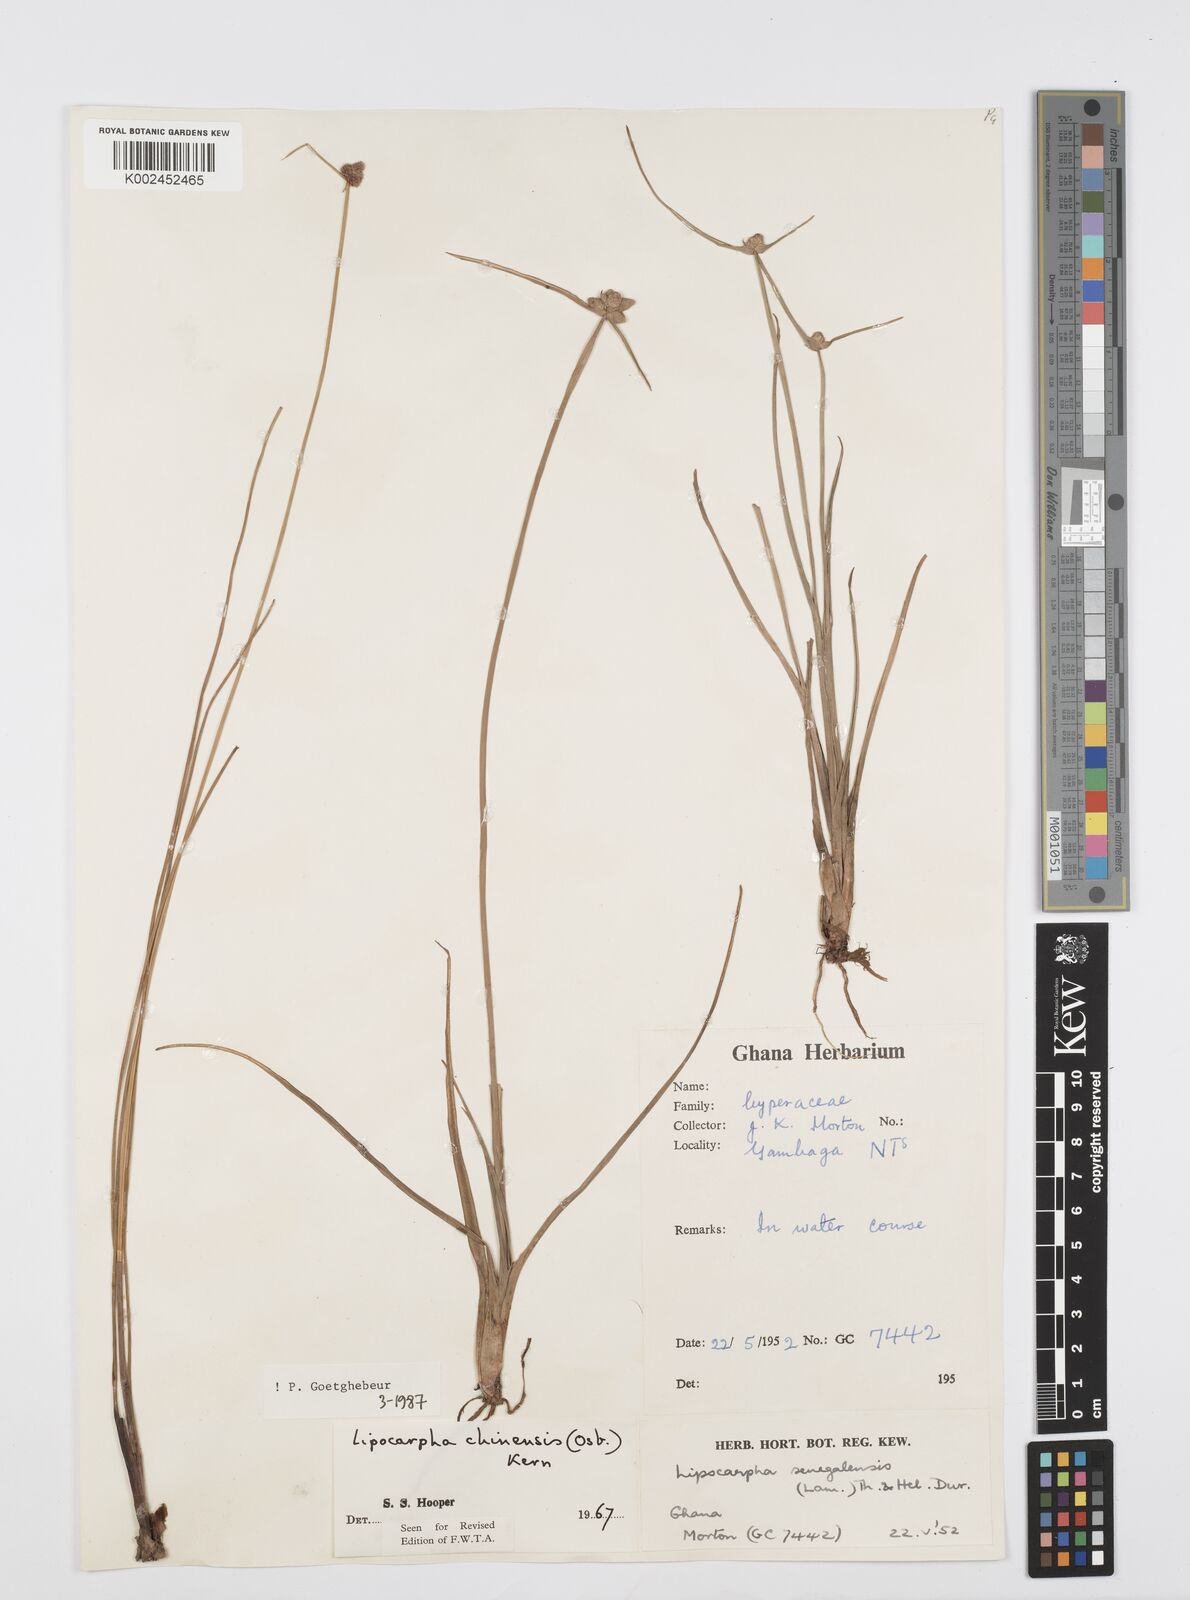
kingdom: Plantae
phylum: Tracheophyta
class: Liliopsida
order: Poales
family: Cyperaceae
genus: Cyperus
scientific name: Cyperus albescens
